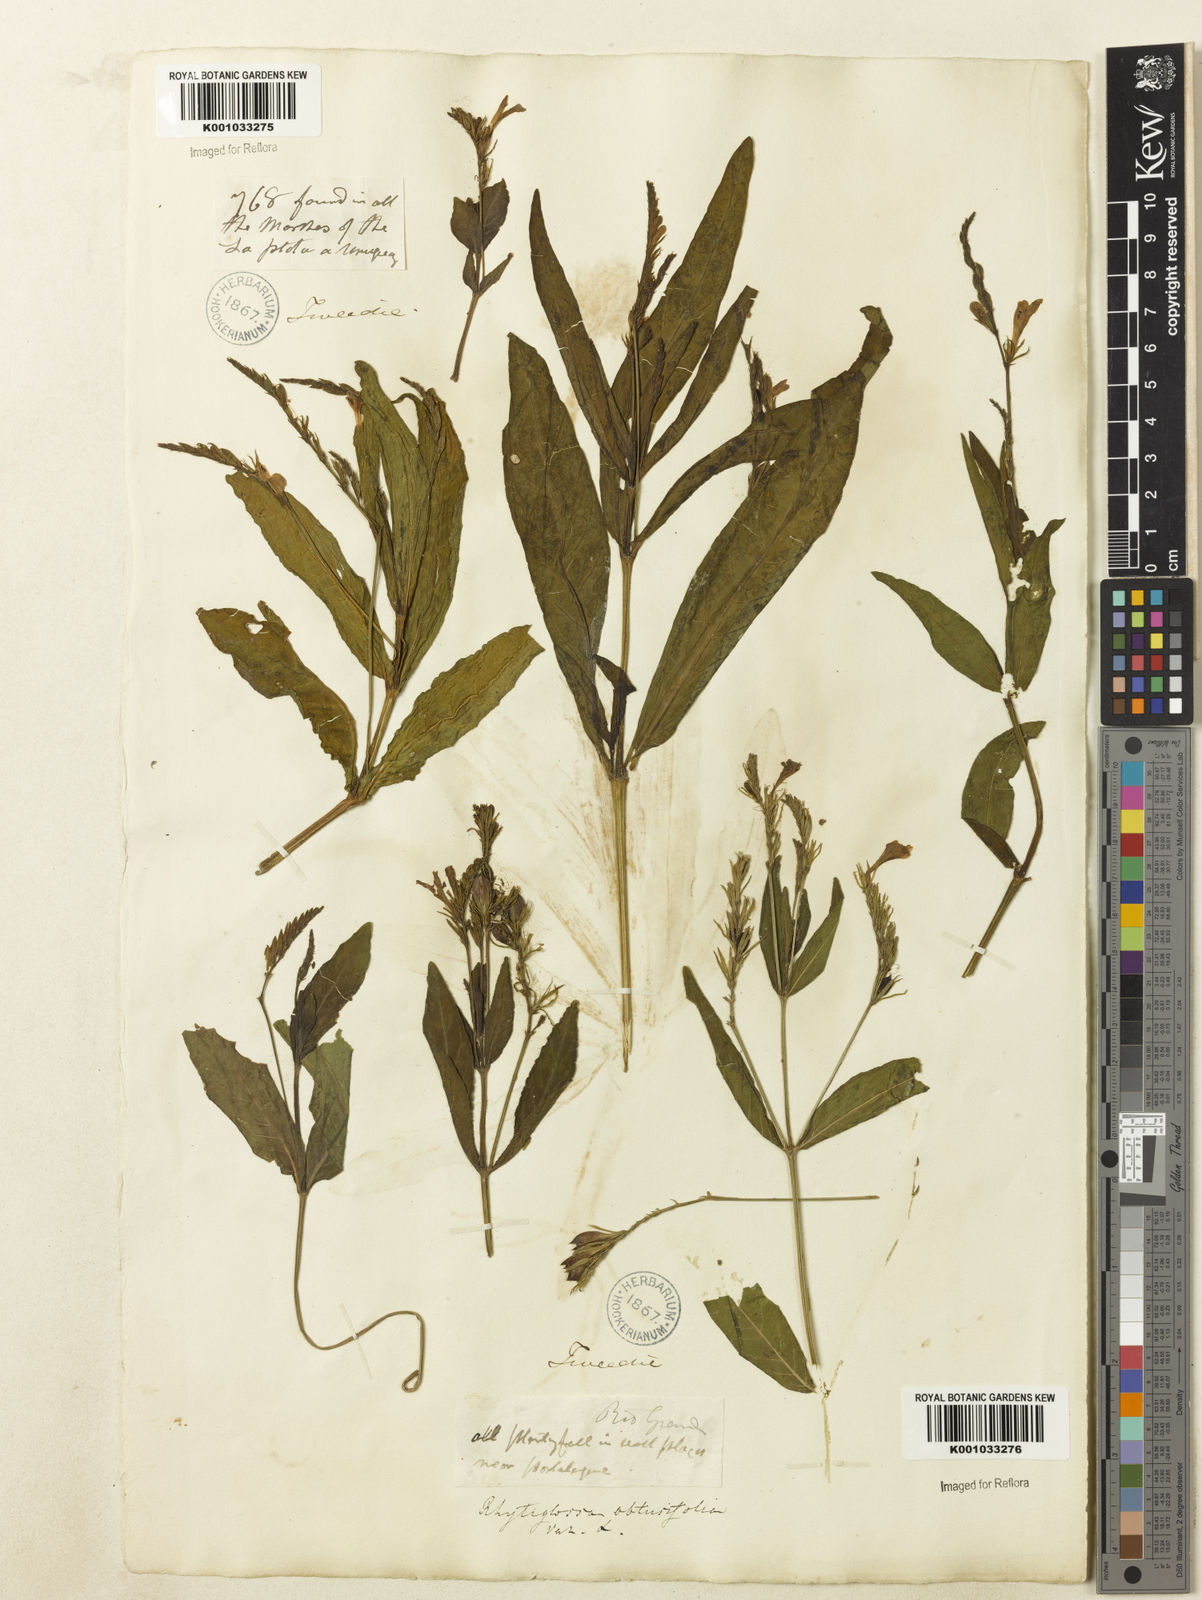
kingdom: Plantae
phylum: Tracheophyta
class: Magnoliopsida
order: Lamiales
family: Acanthaceae
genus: Dianthera
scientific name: Dianthera laevilinguis
